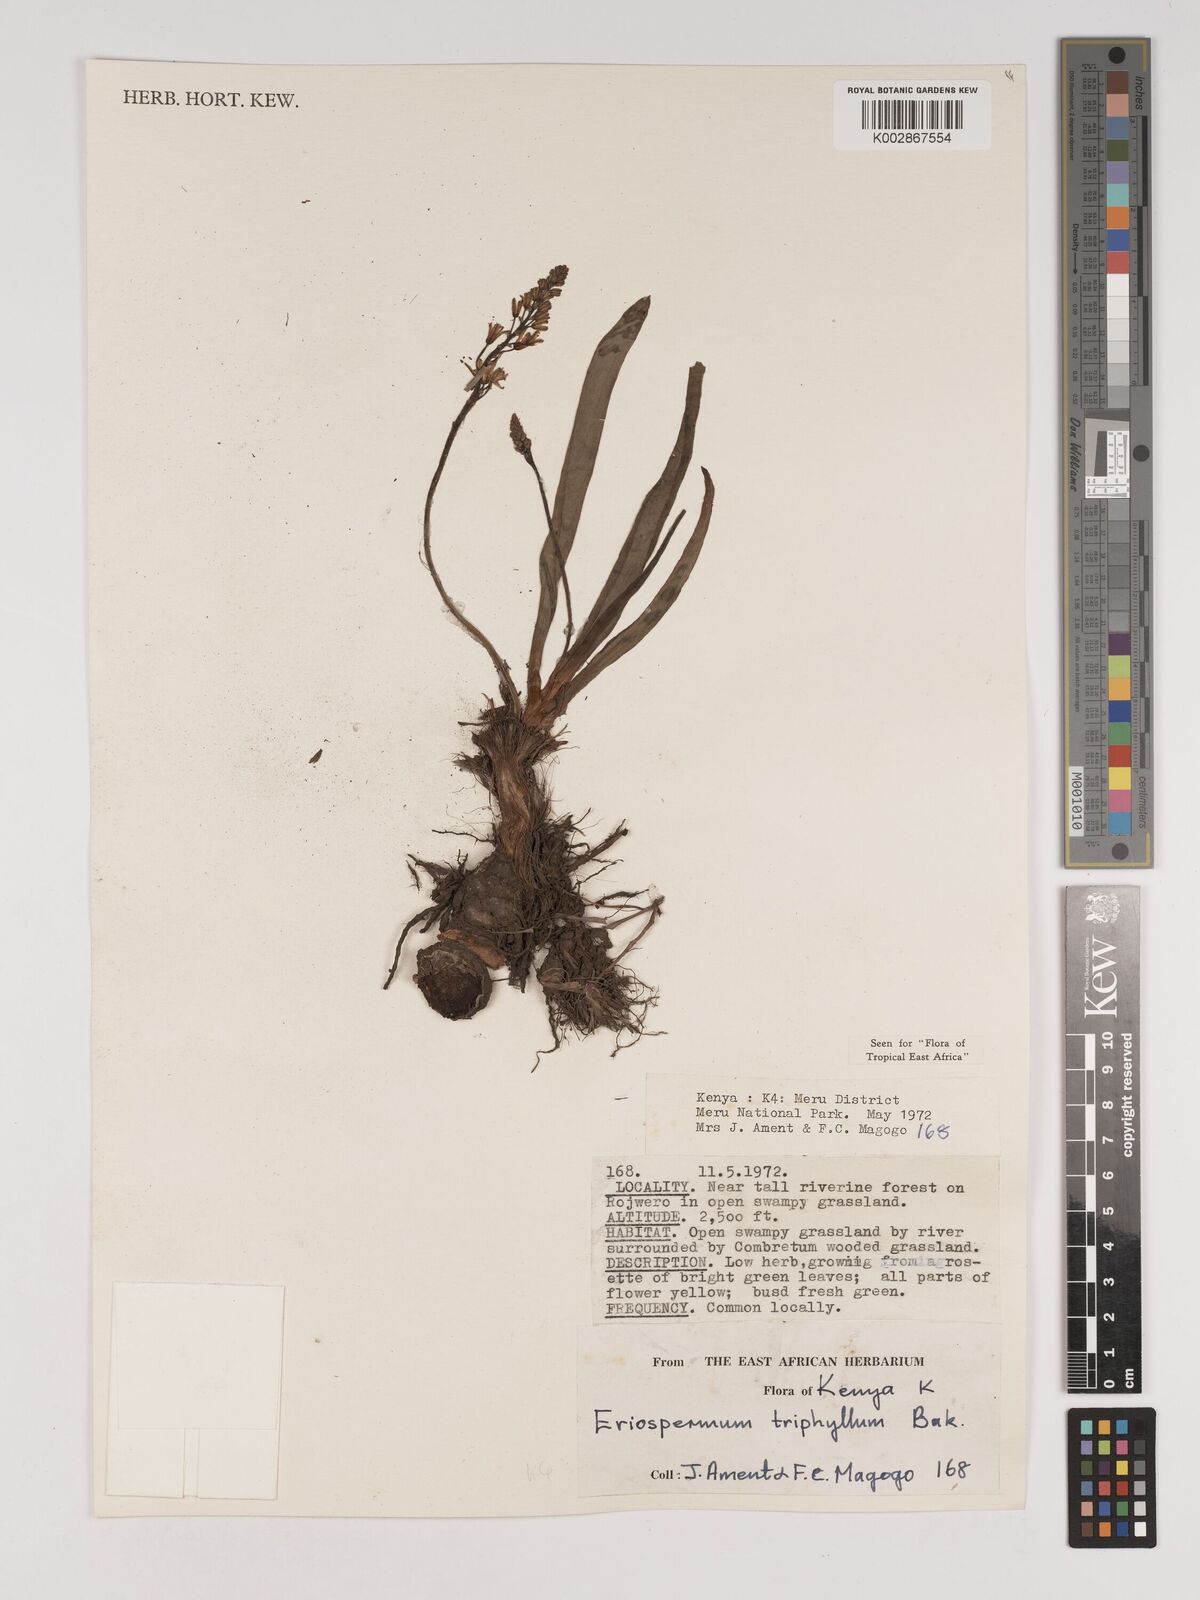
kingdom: Plantae
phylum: Tracheophyta
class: Liliopsida
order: Asparagales
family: Asparagaceae
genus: Eriospermum
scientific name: Eriospermum triphyllum
